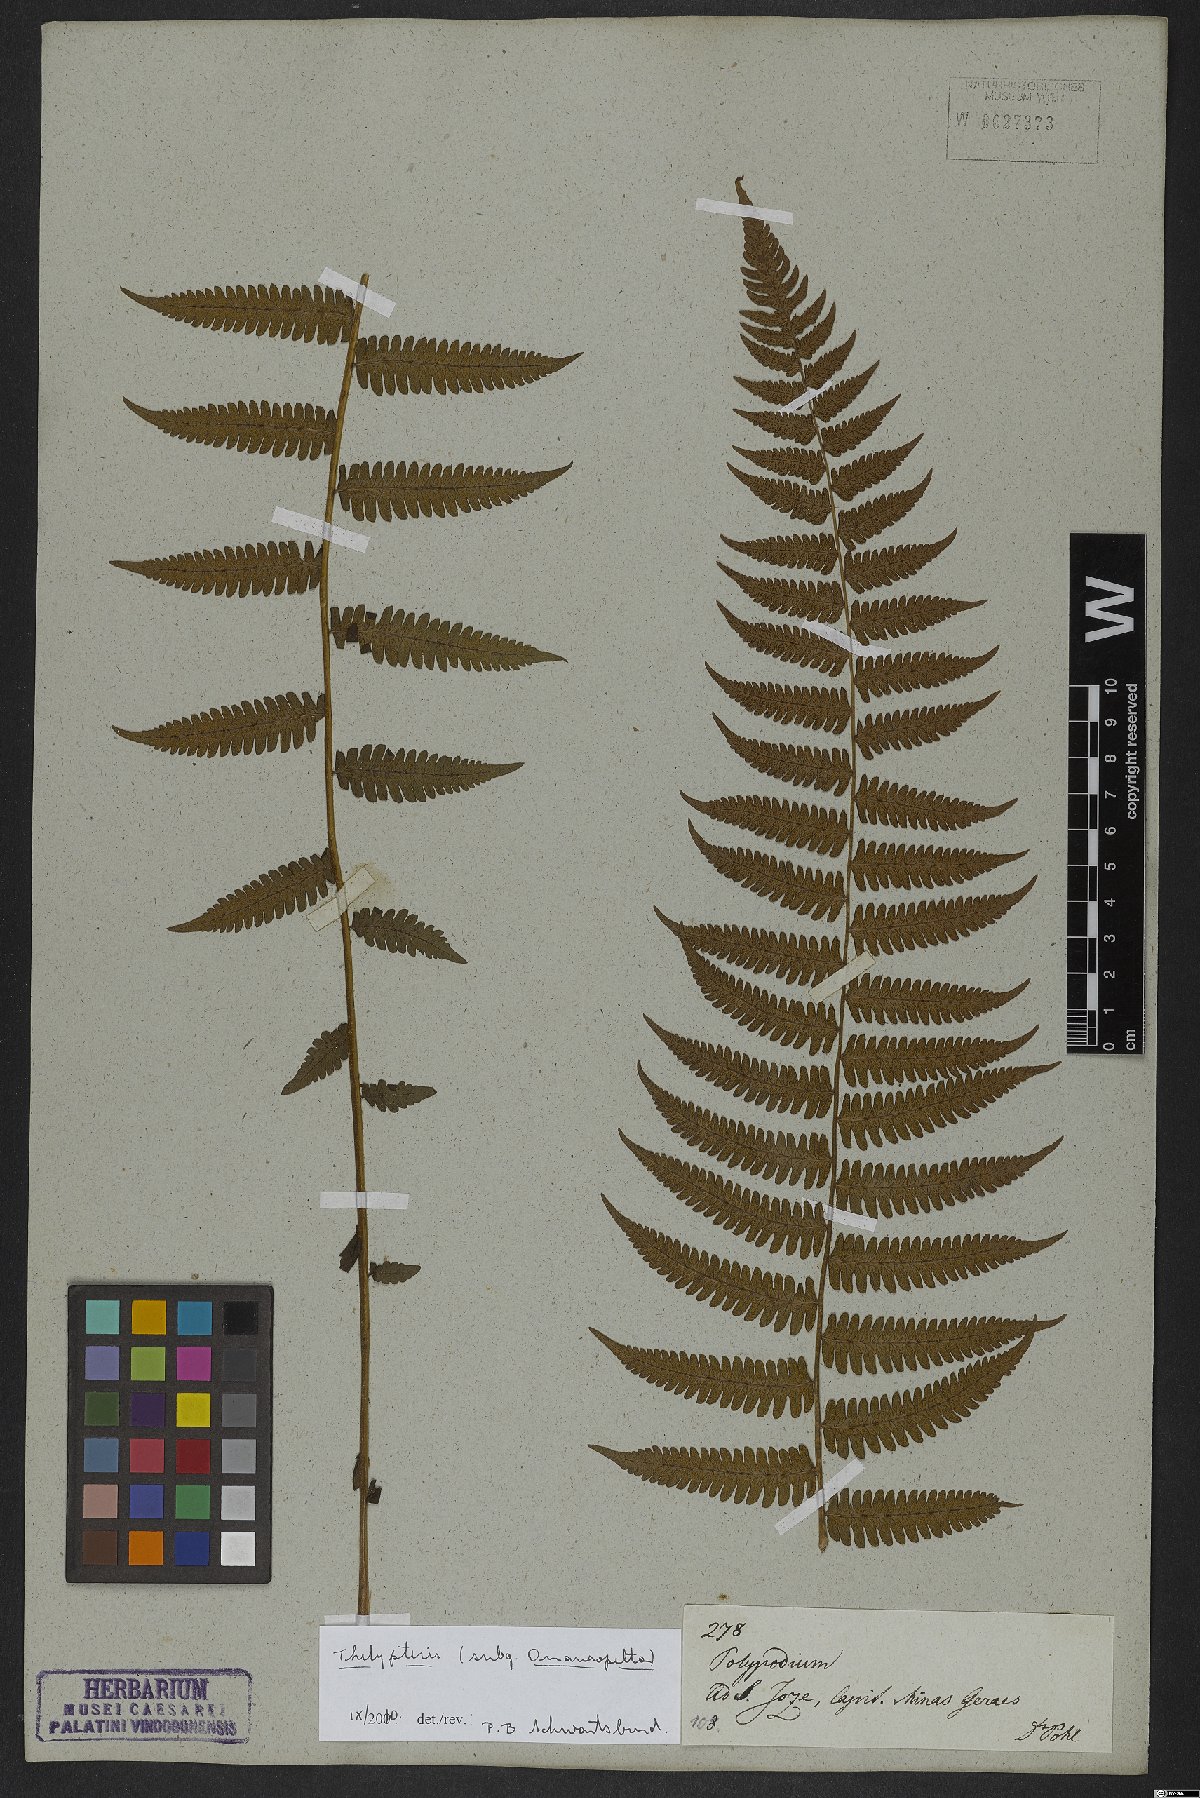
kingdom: Plantae
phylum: Tracheophyta
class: Polypodiopsida
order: Polypodiales
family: Thelypteridaceae
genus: Thelypteris
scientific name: Thelypteris
